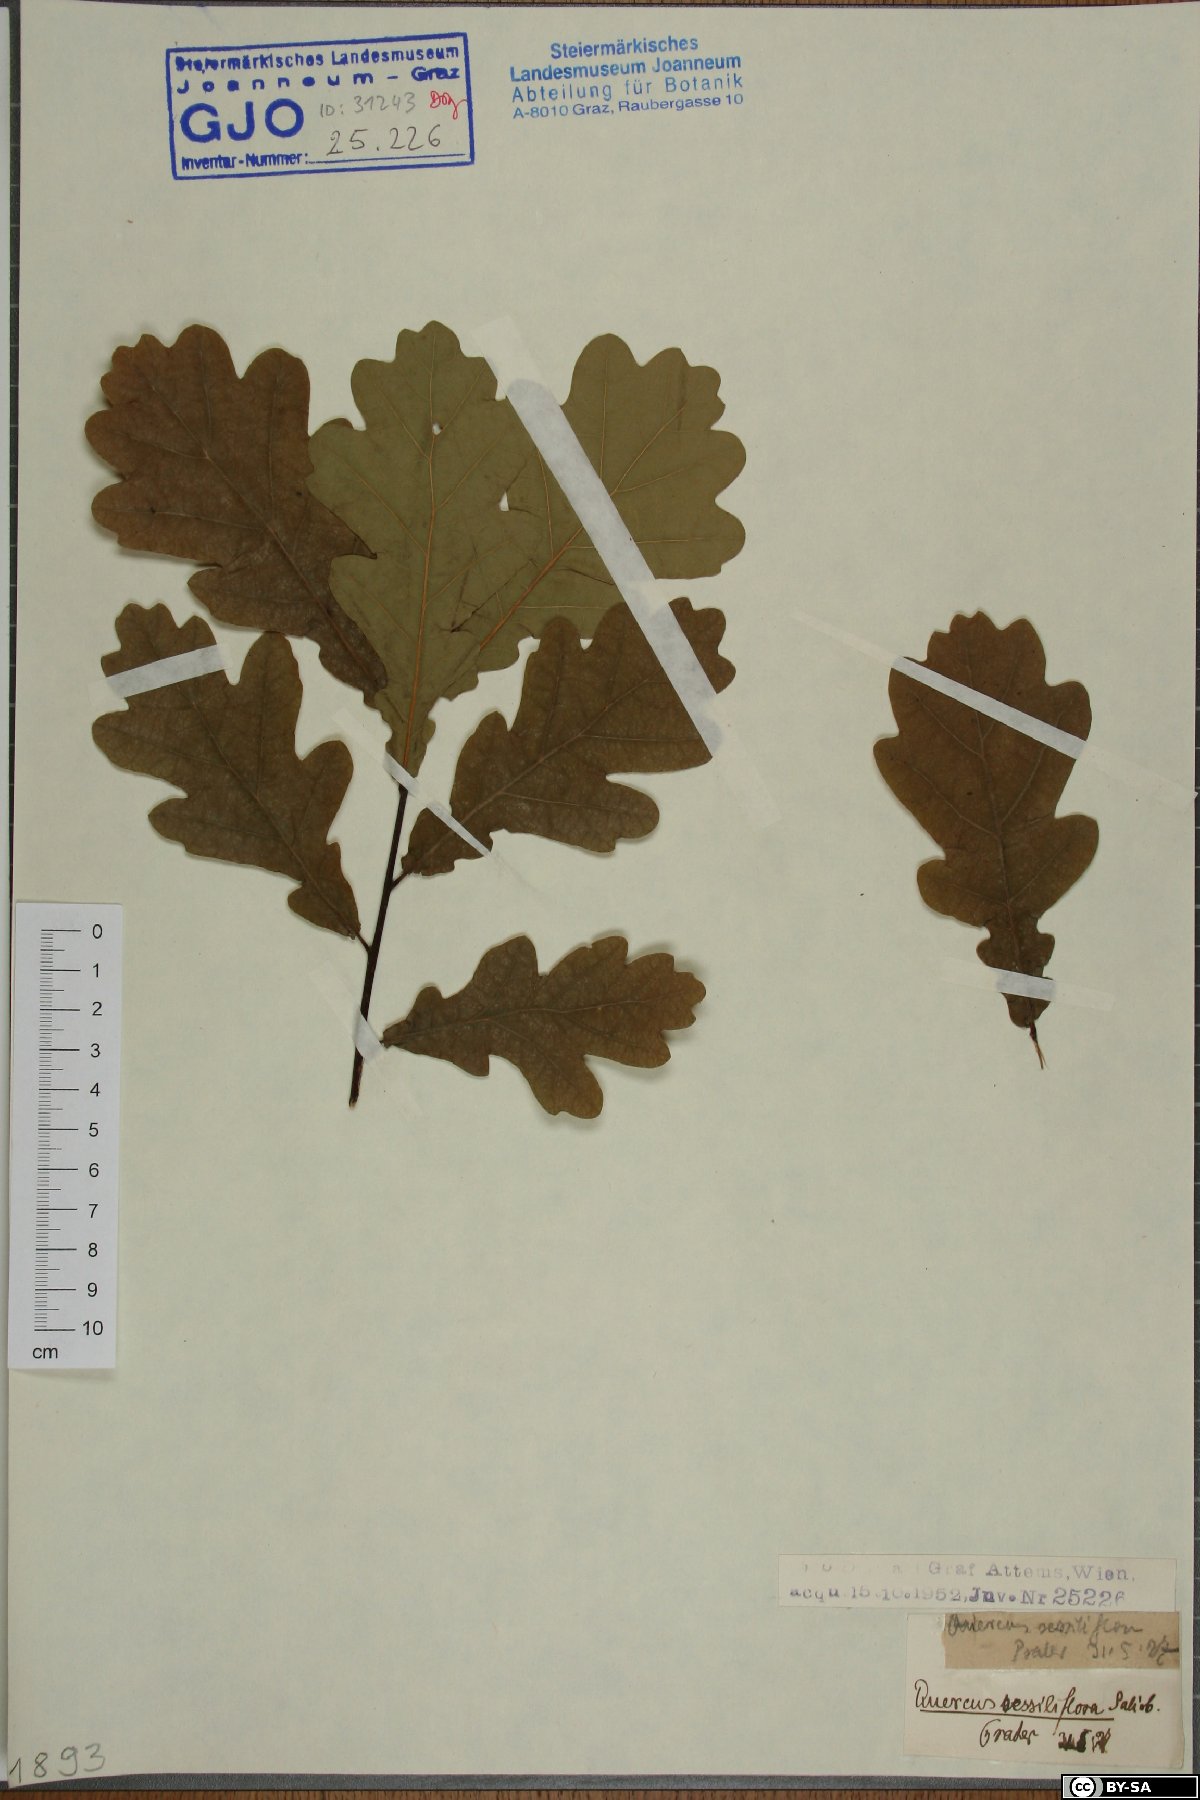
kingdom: Plantae
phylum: Tracheophyta
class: Magnoliopsida
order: Fagales
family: Fagaceae
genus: Quercus
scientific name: Quercus petraea
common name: Sessile oak
